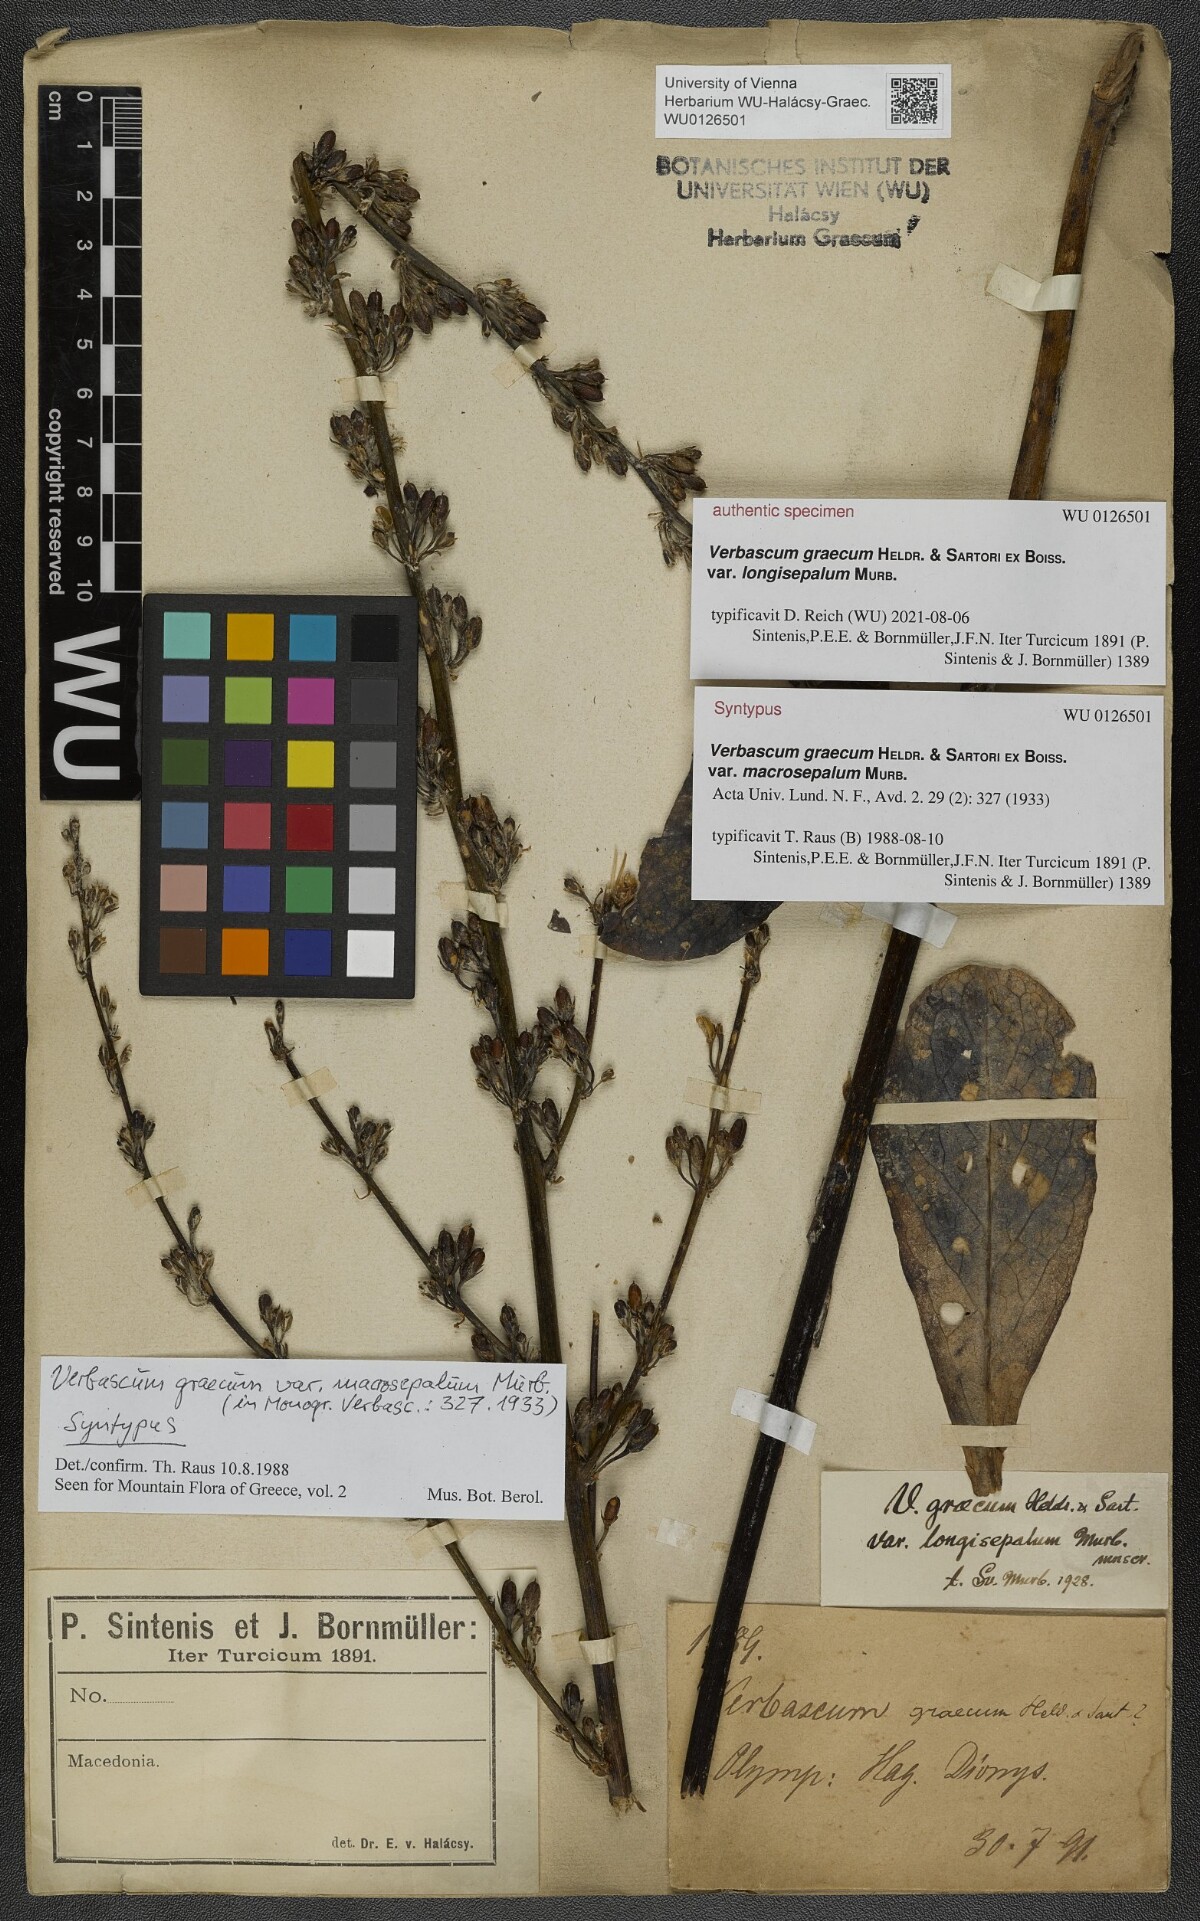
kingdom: Plantae
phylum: Tracheophyta
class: Magnoliopsida
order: Lamiales
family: Scrophulariaceae
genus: Verbascum
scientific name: Verbascum graecum
